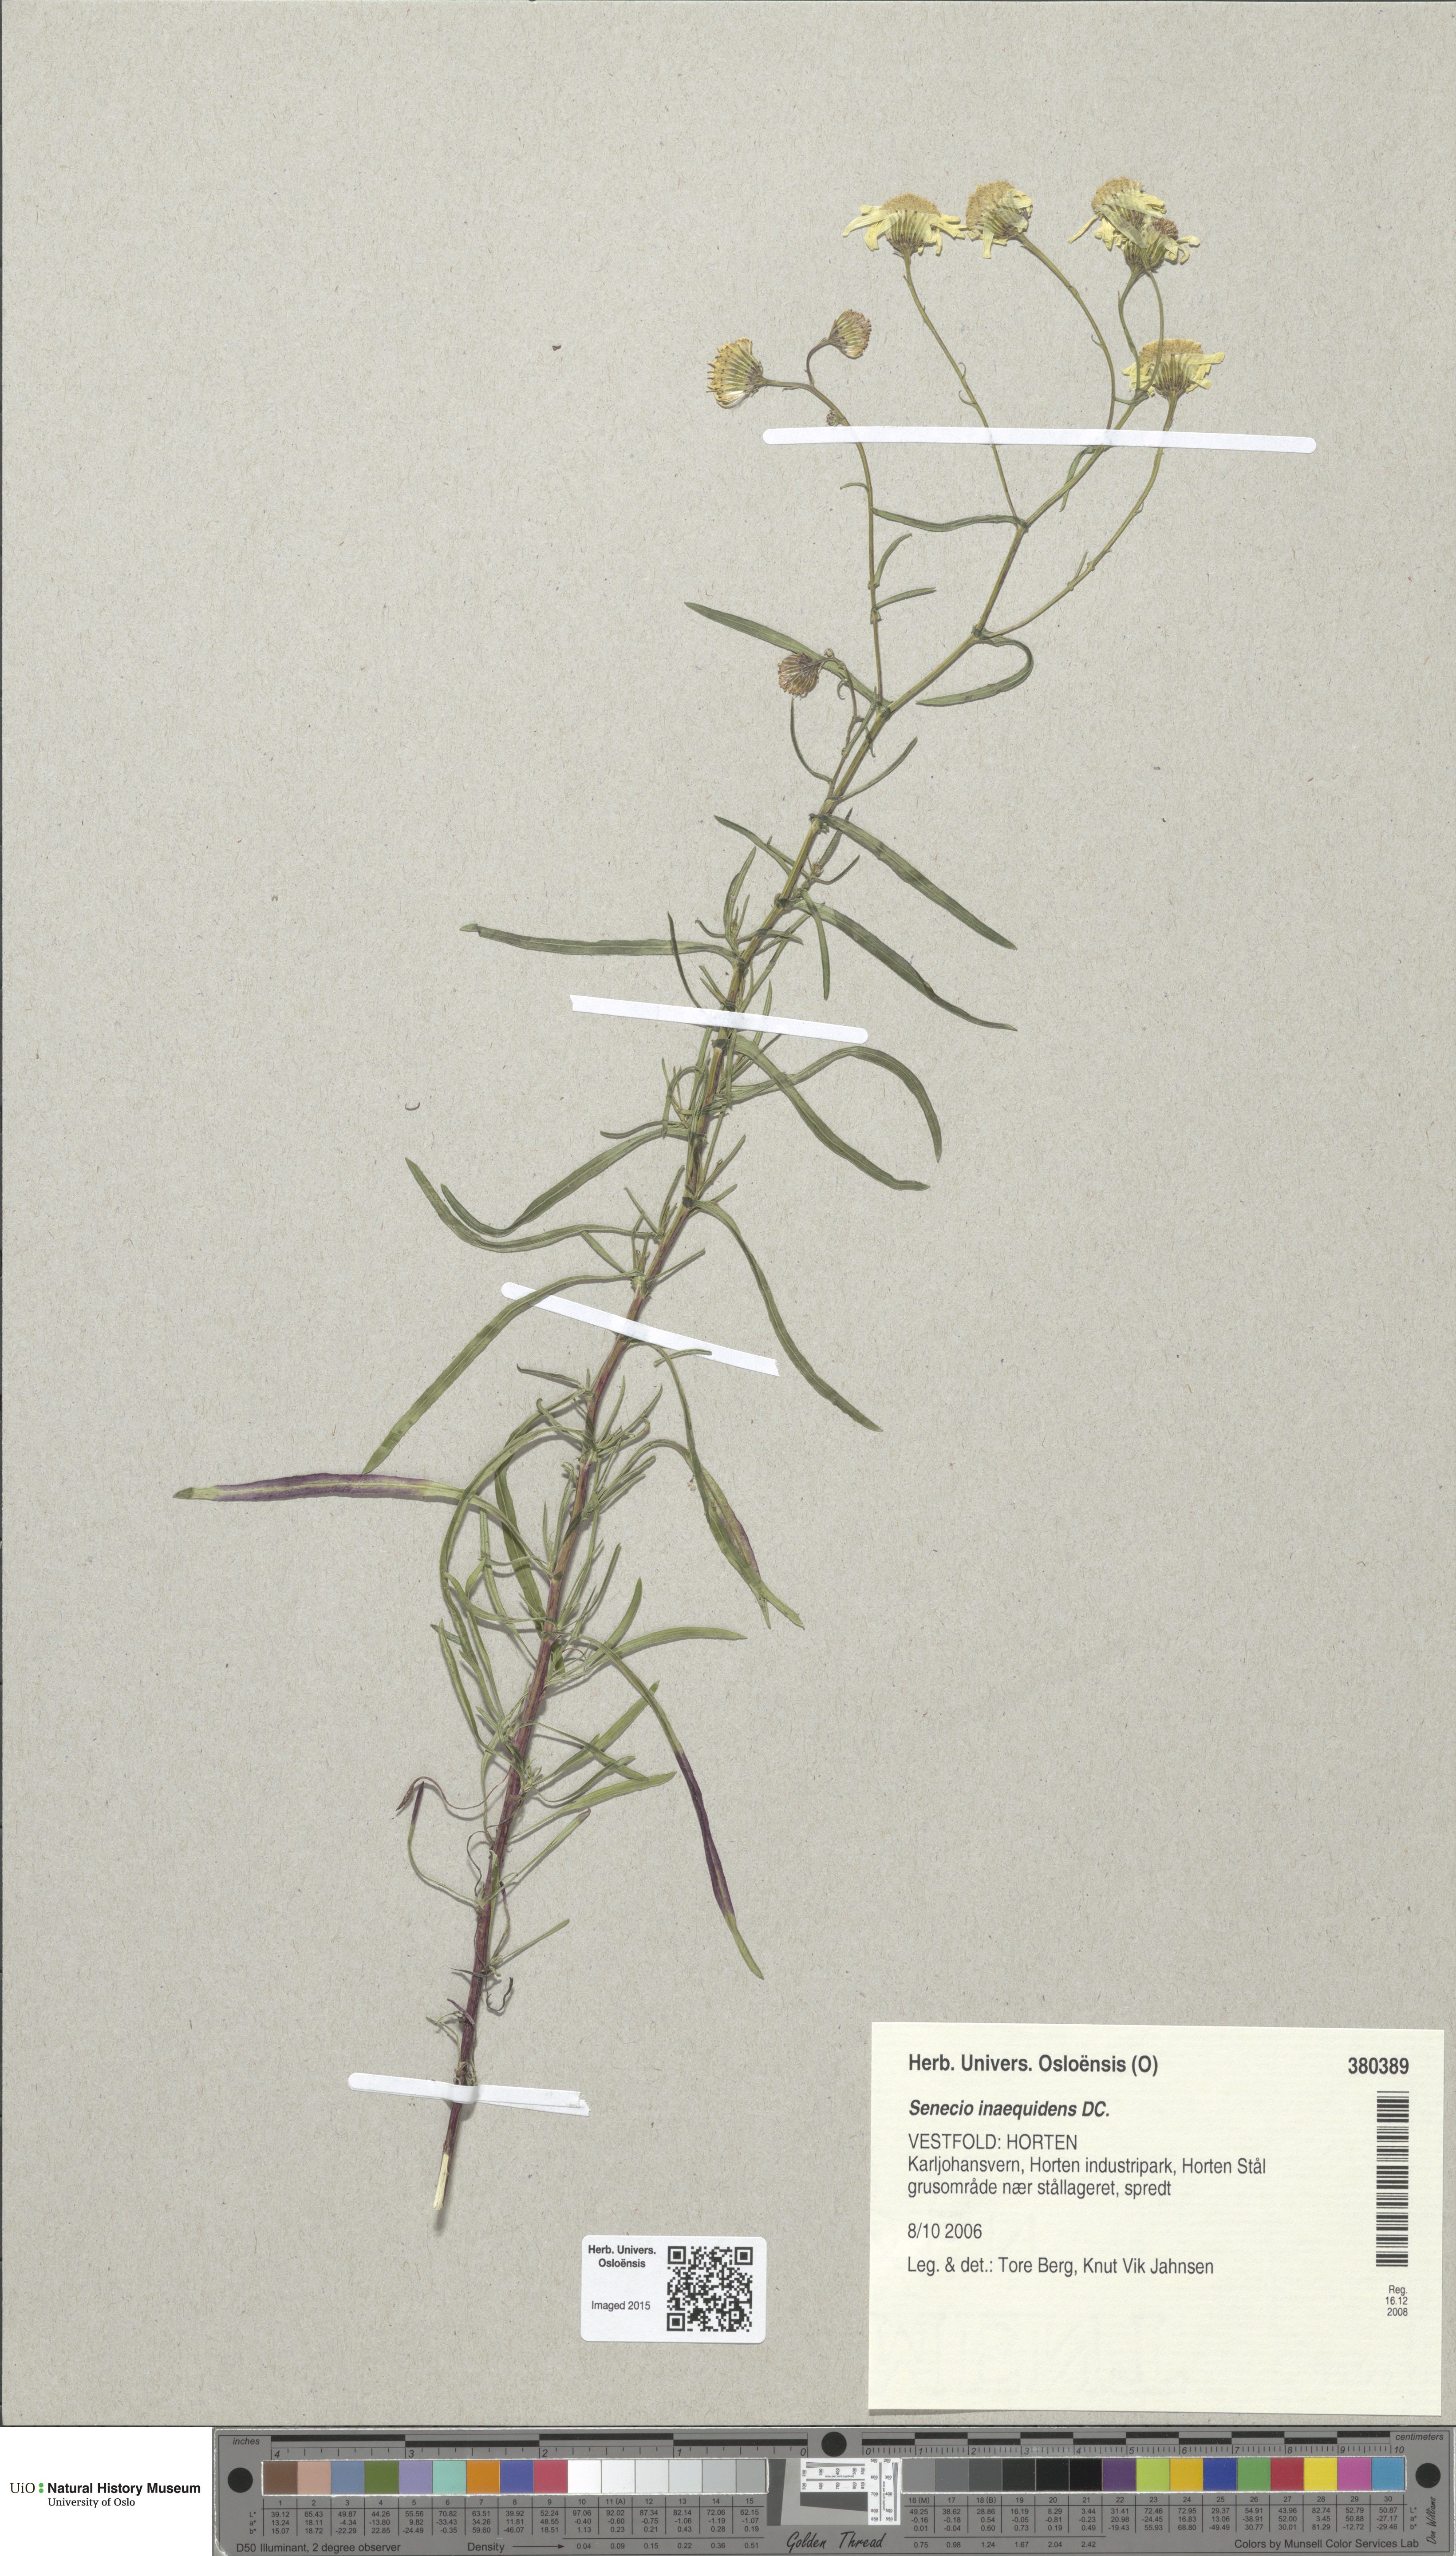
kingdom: Plantae
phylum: Tracheophyta
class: Magnoliopsida
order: Asterales
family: Asteraceae
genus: Senecio
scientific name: Senecio inaequidens
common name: Narrow-leaved ragwort
